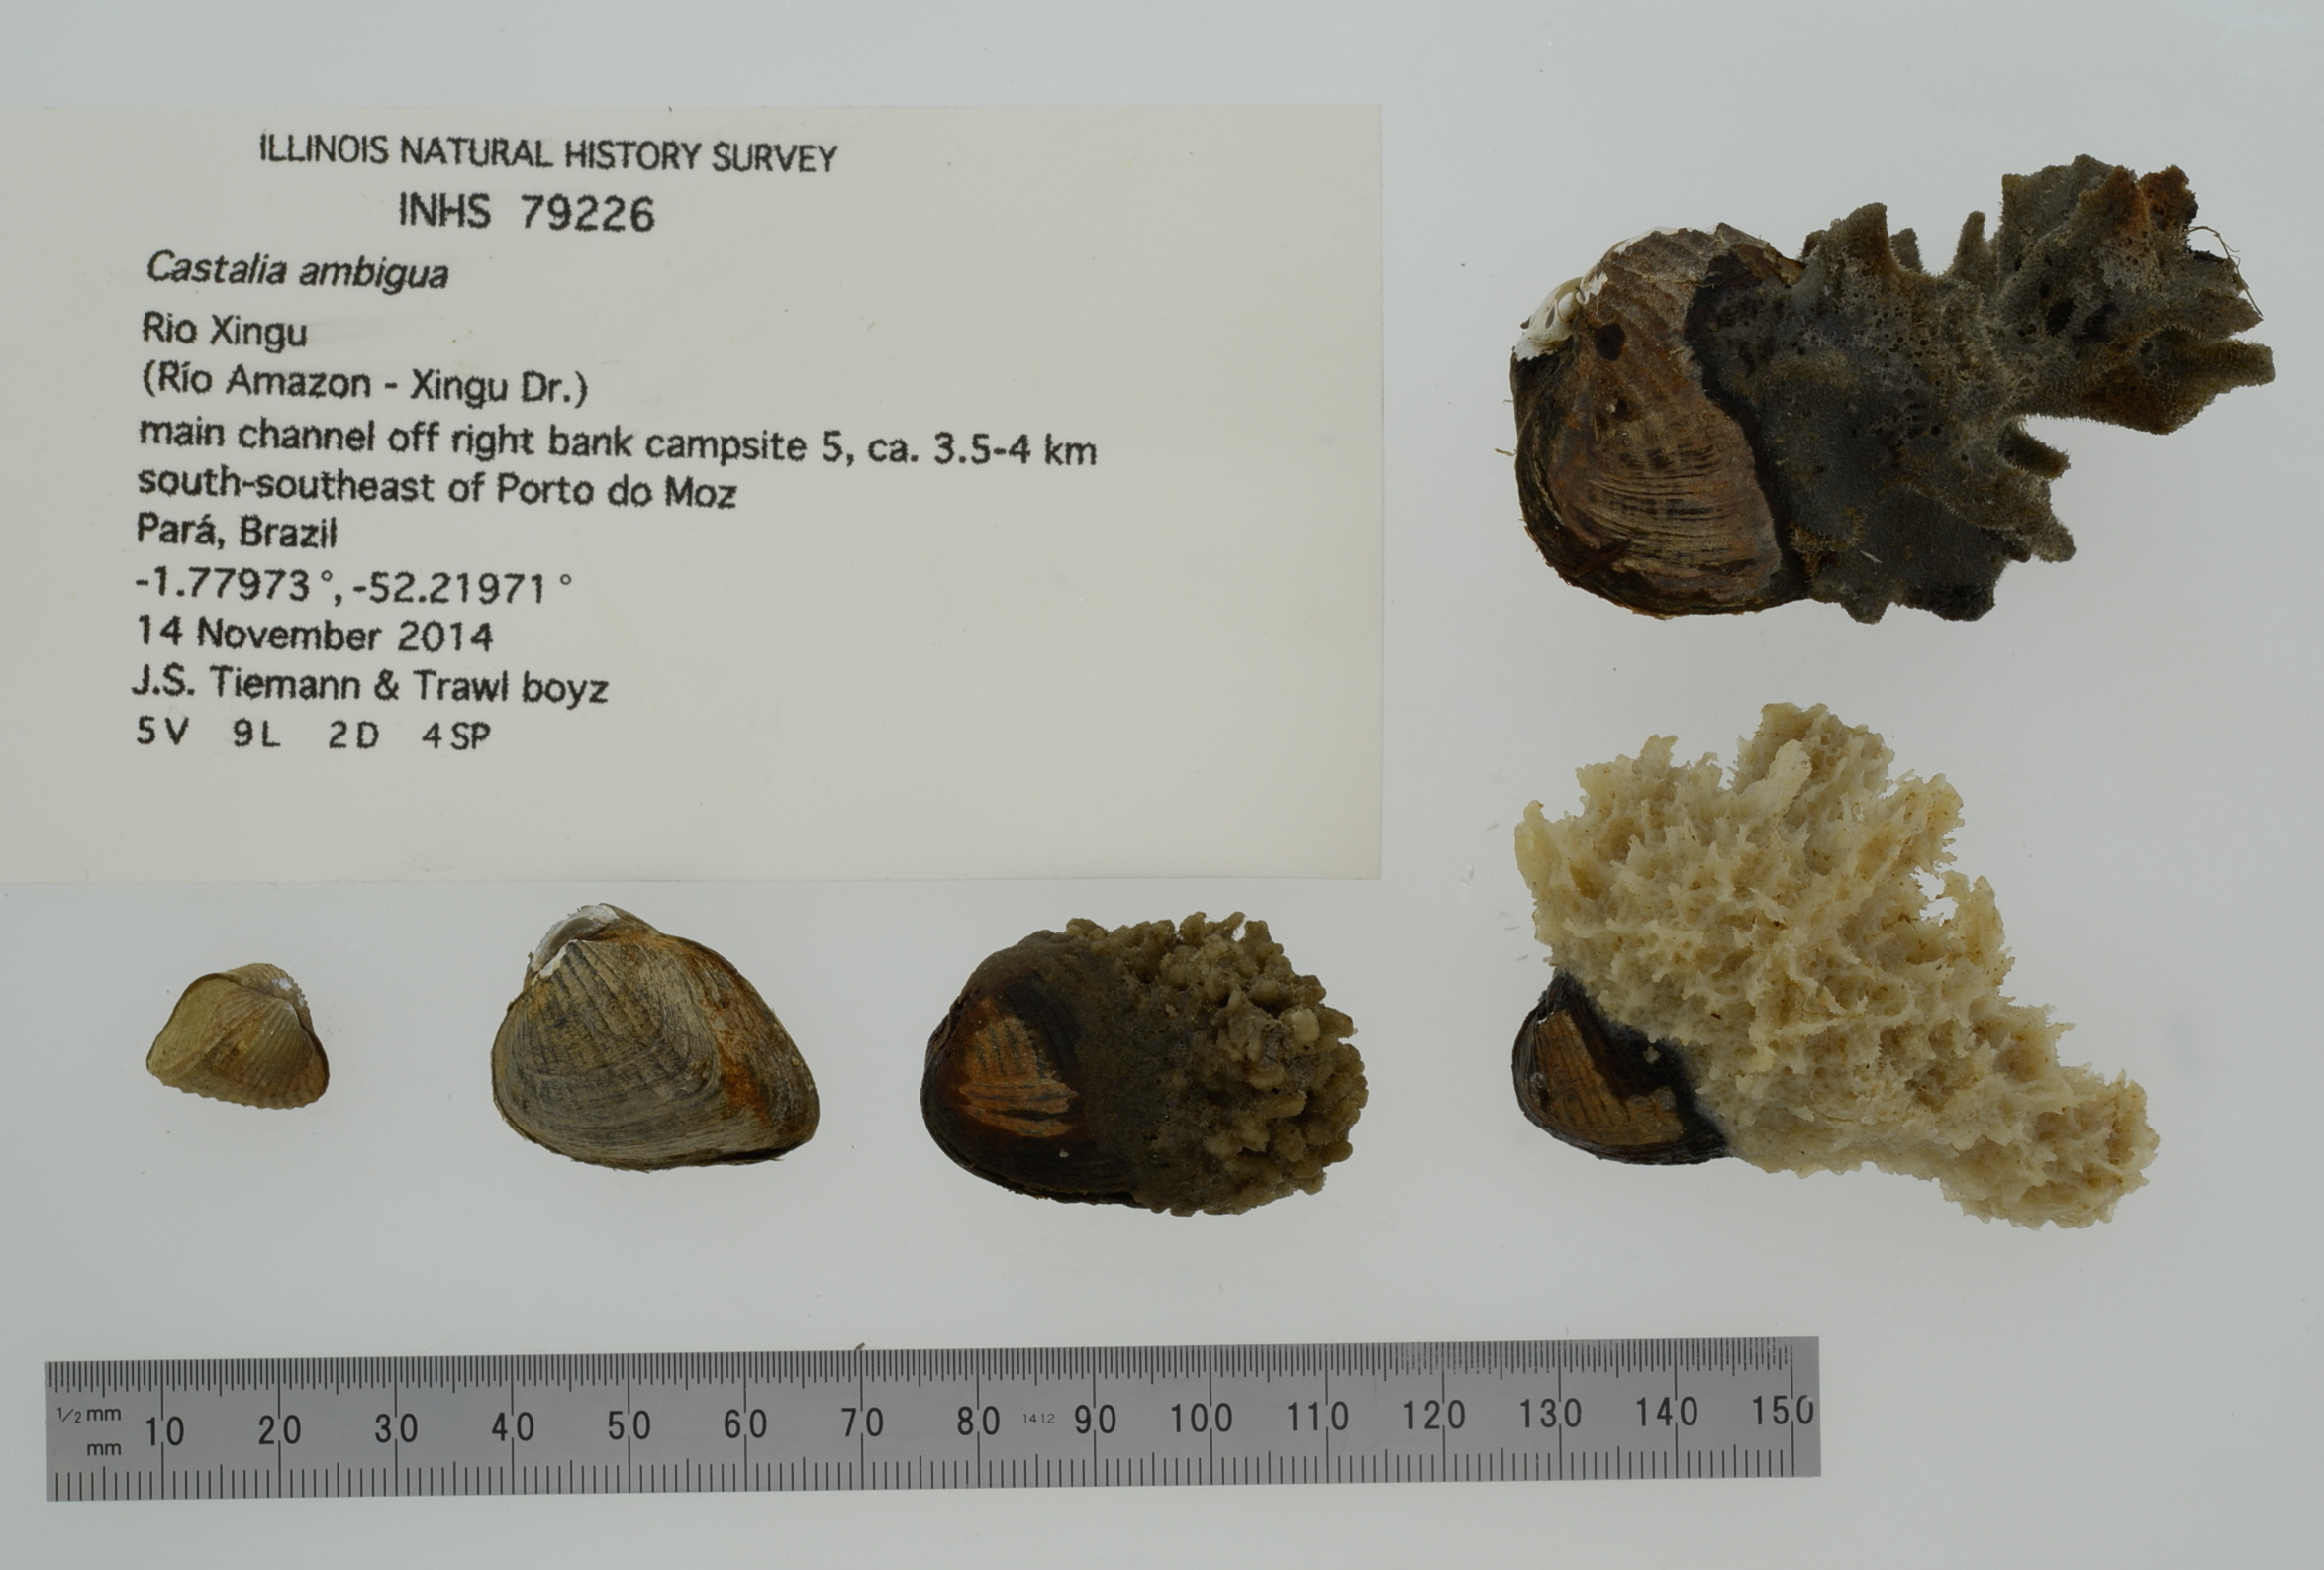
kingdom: Animalia
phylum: Mollusca
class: Bivalvia
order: Unionida
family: Hyriidae
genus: Castalia
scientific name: Castalia ambigua
